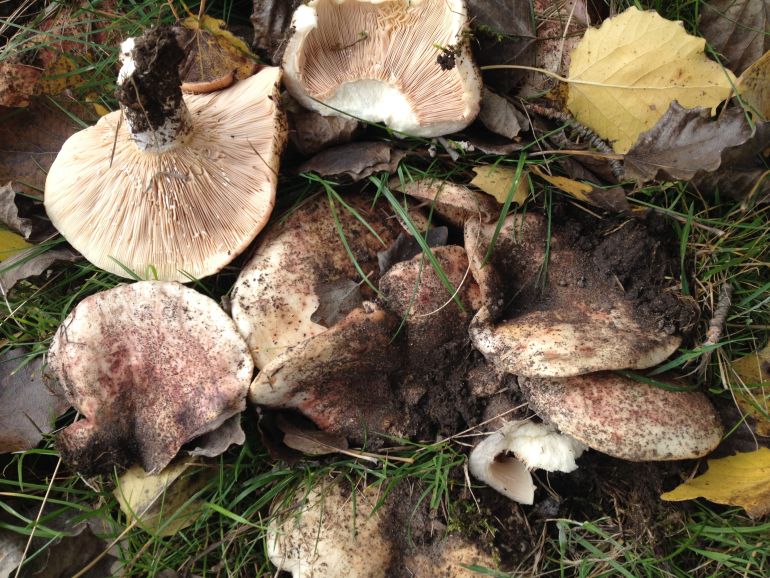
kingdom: Fungi
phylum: Basidiomycota
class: Agaricomycetes
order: Russulales
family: Russulaceae
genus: Lactarius
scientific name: Lactarius controversus
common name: rosabladet mælkehat
